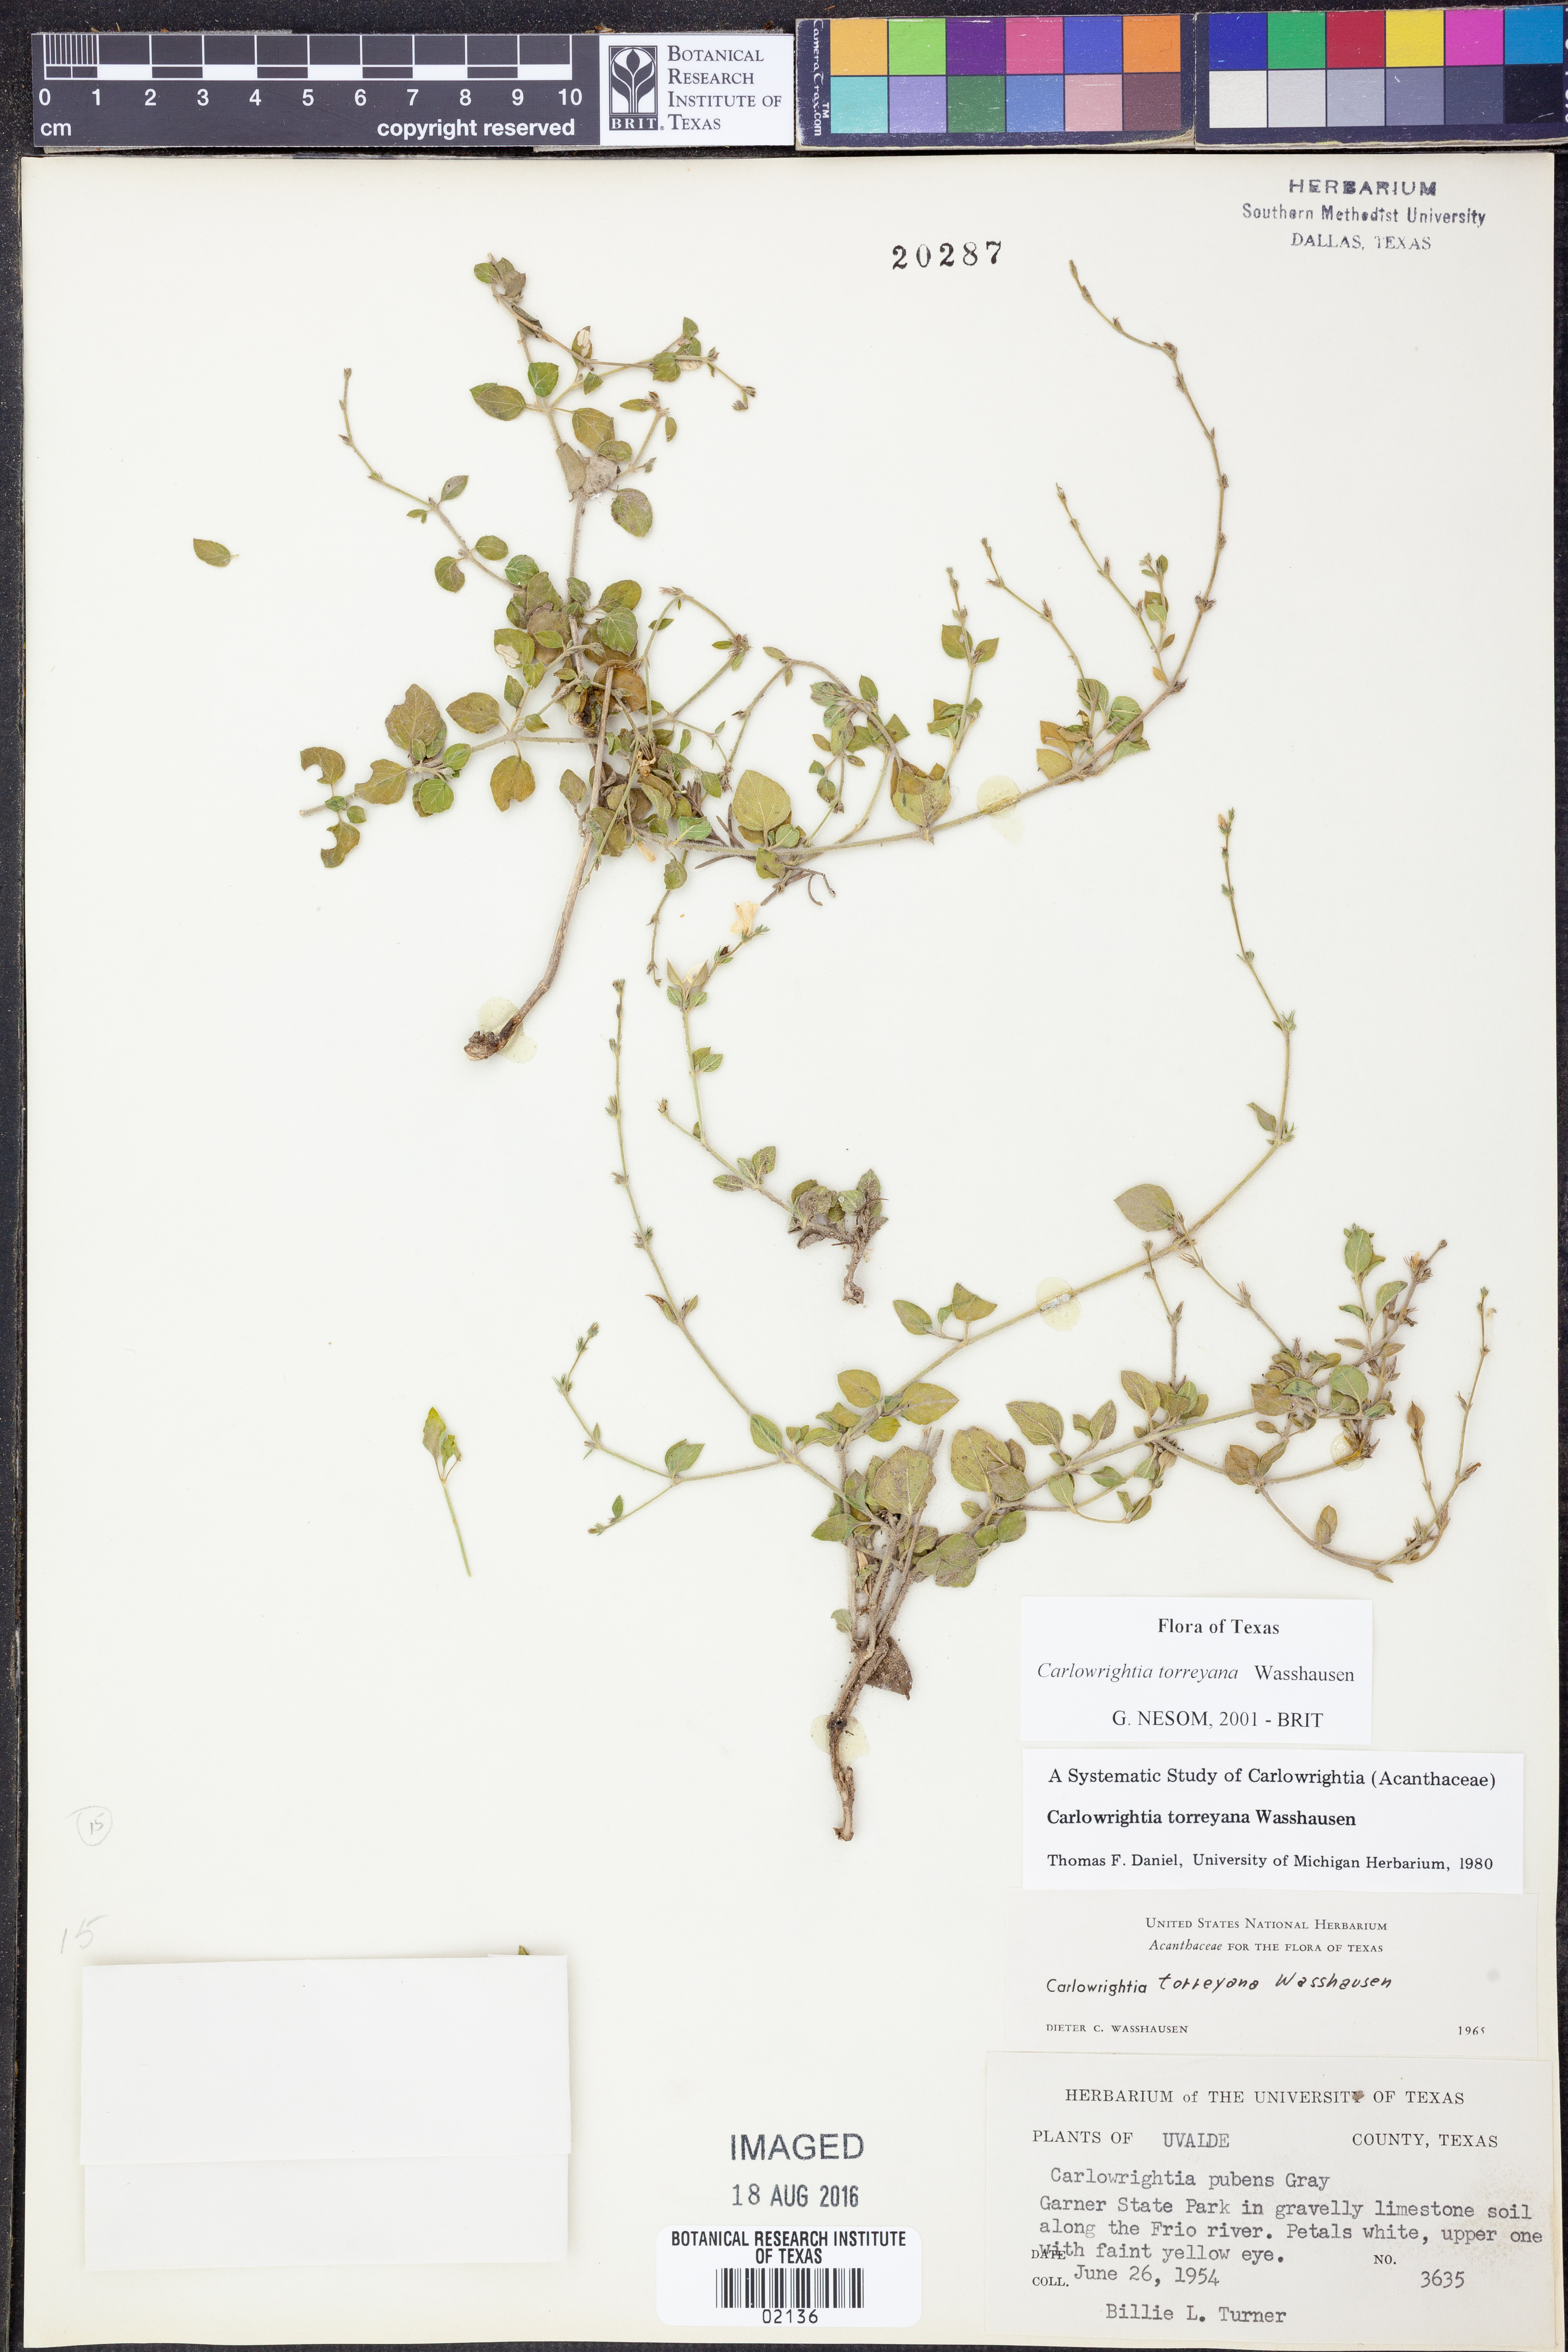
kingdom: Plantae
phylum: Tracheophyta
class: Magnoliopsida
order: Lamiales
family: Acanthaceae
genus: Carlowrightia
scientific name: Carlowrightia torreyana
